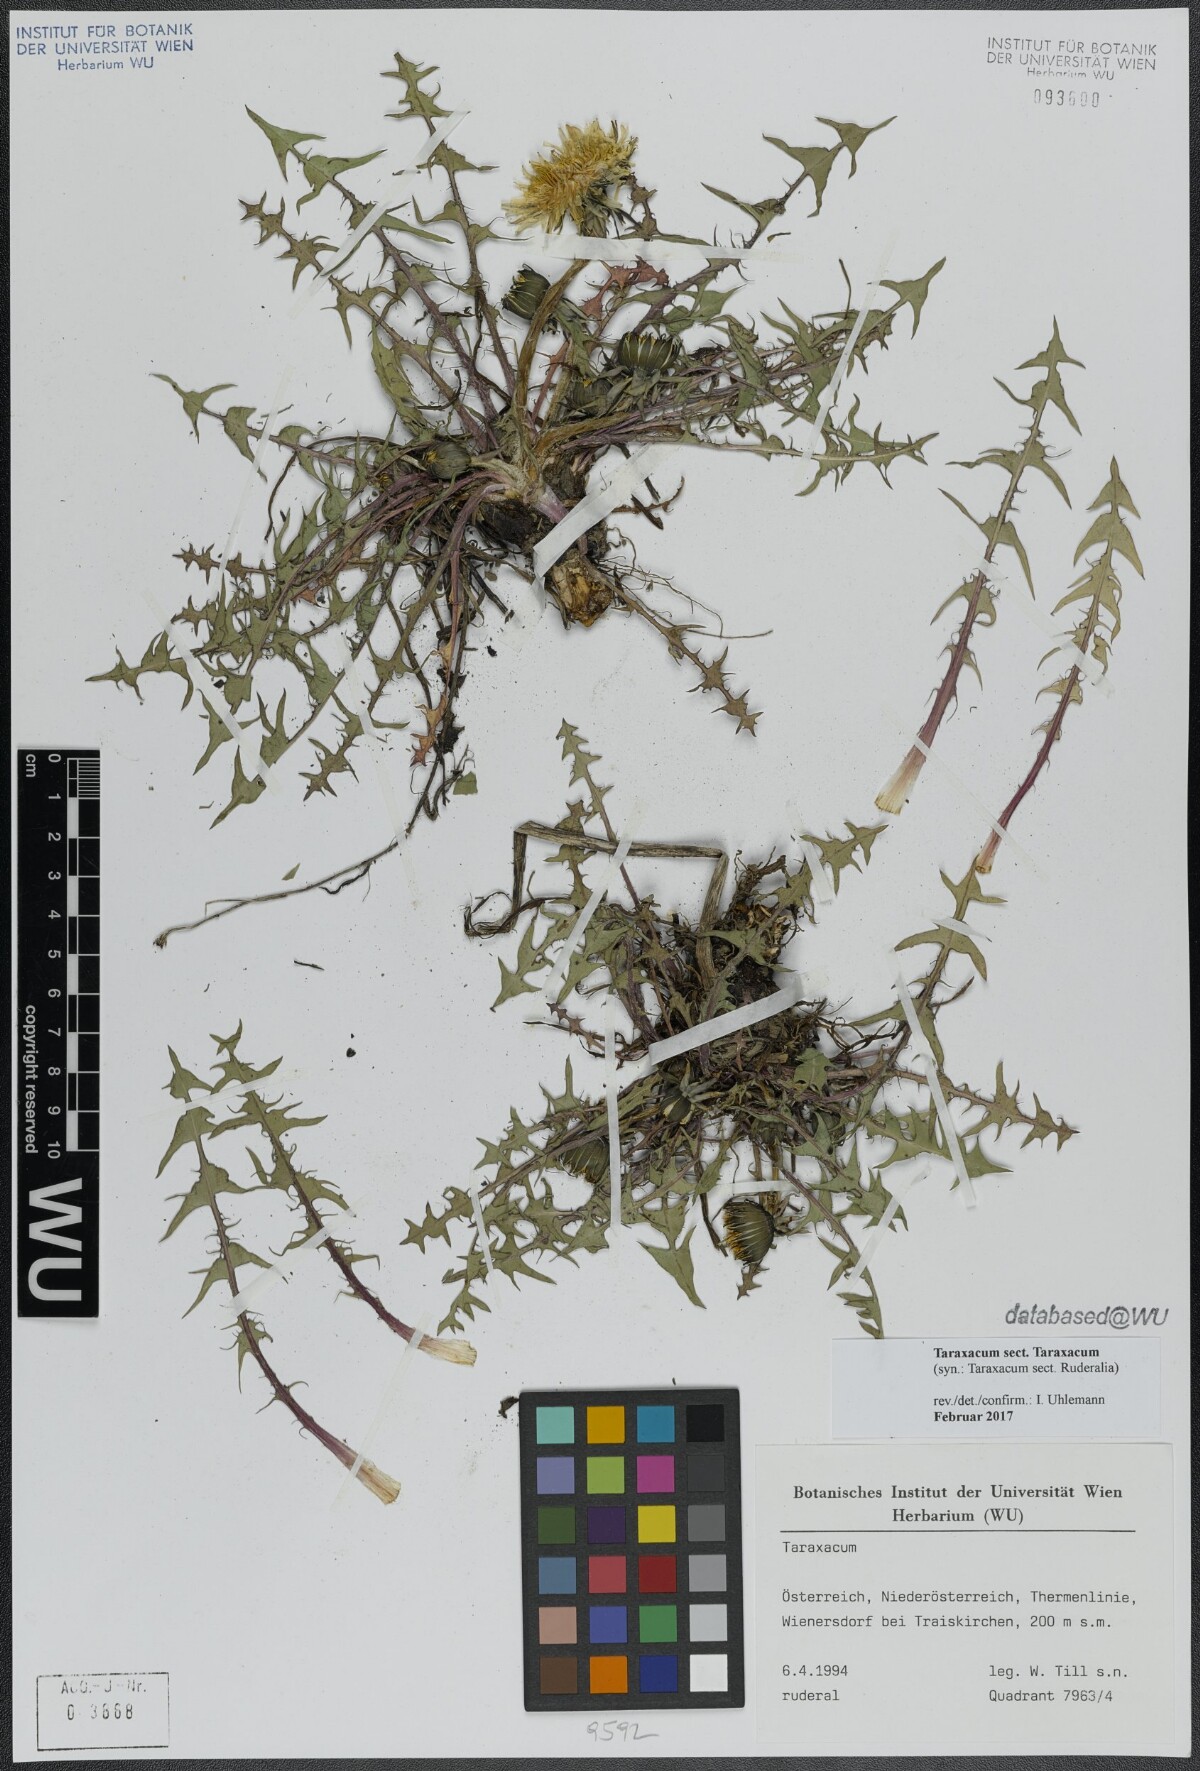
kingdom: Plantae
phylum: Tracheophyta
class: Magnoliopsida
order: Asterales
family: Asteraceae
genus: Taraxacum
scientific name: Taraxacum
